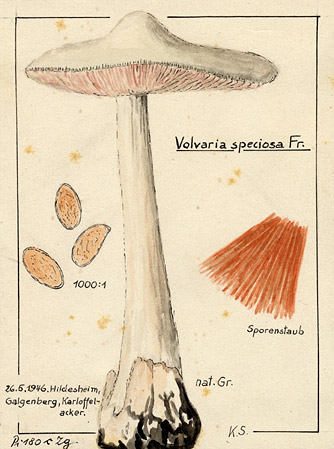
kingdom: Fungi
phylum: Basidiomycota
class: Agaricomycetes
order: Agaricales
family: Pluteaceae
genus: Volvopluteus
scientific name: Volvopluteus gloiocephalus
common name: Stubble rosegill
